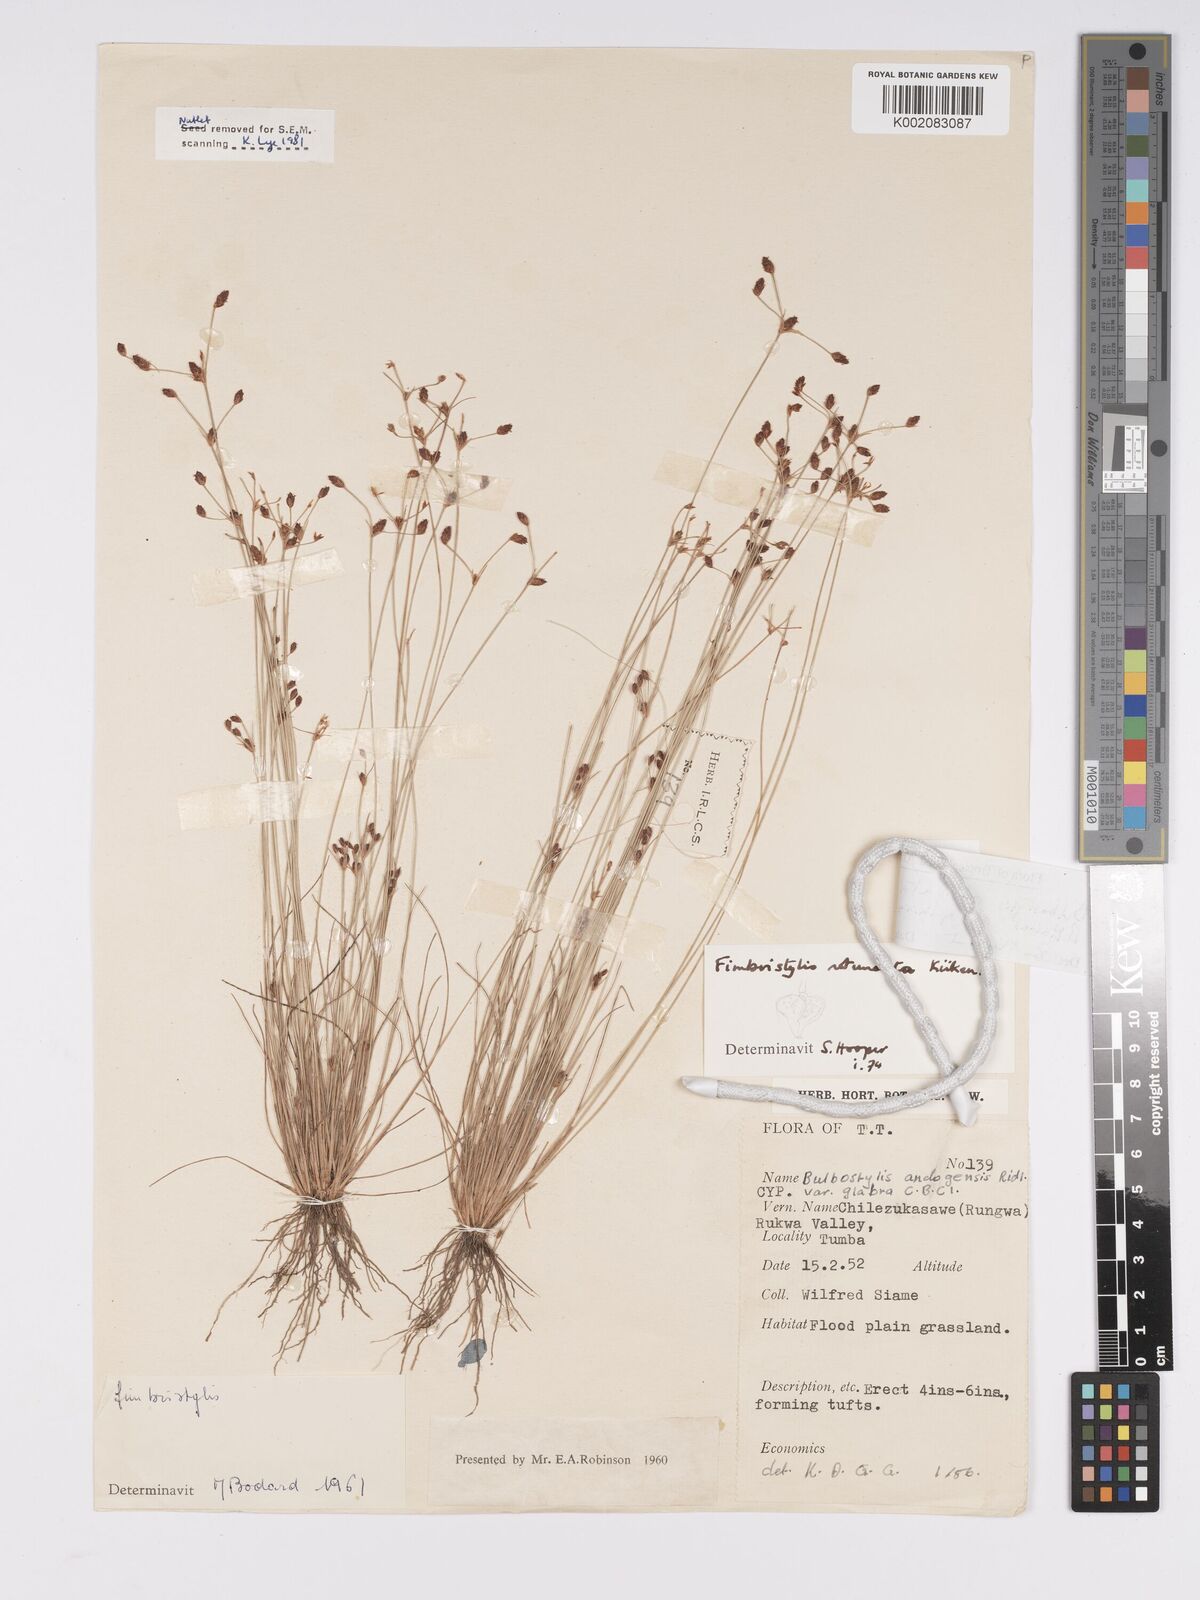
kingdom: Plantae
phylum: Tracheophyta
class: Liliopsida
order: Poales
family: Cyperaceae
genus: Bulbostylis
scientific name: Bulbostylis rotundata
